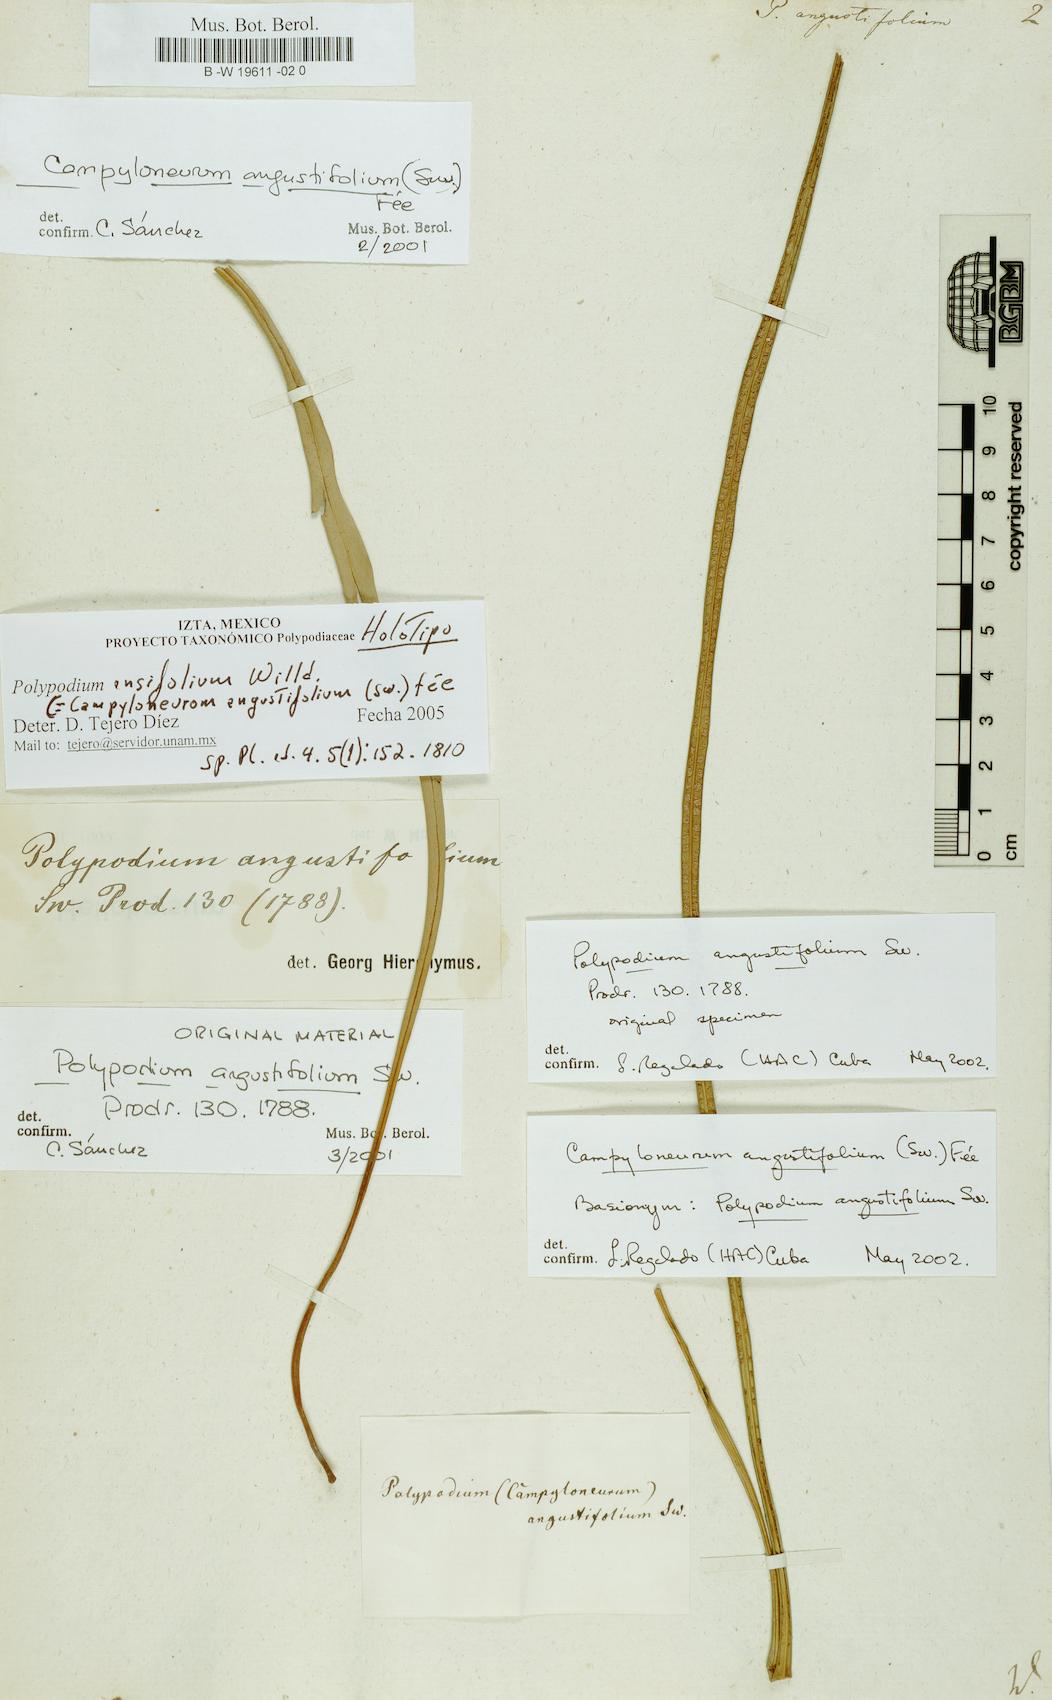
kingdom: Plantae
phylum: Tracheophyta
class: Polypodiopsida
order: Polypodiales
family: Polypodiaceae
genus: Campyloneurum
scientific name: Campyloneurum angustifolium
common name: Narrow-leaf strap fern
